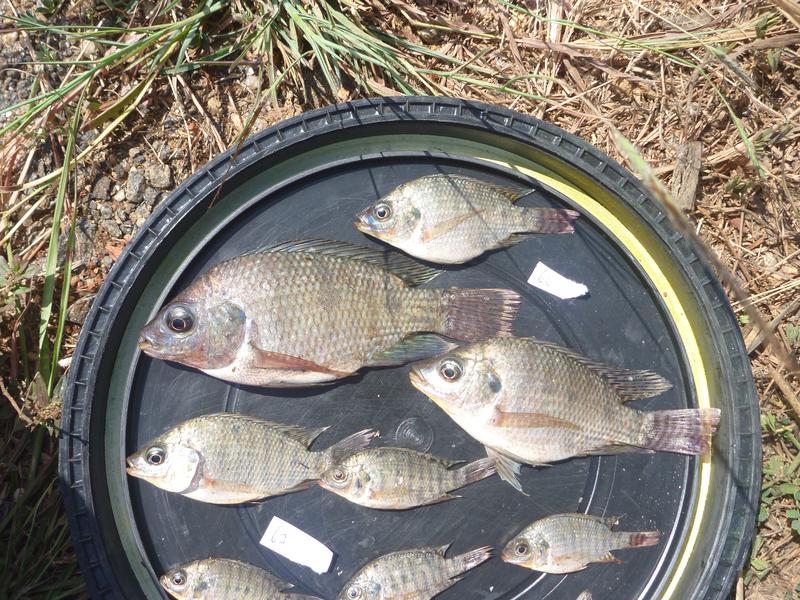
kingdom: Animalia
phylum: Chordata
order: Perciformes
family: Cichlidae
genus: Oreochromis
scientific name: Oreochromis niloticus
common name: Nile tilapia
